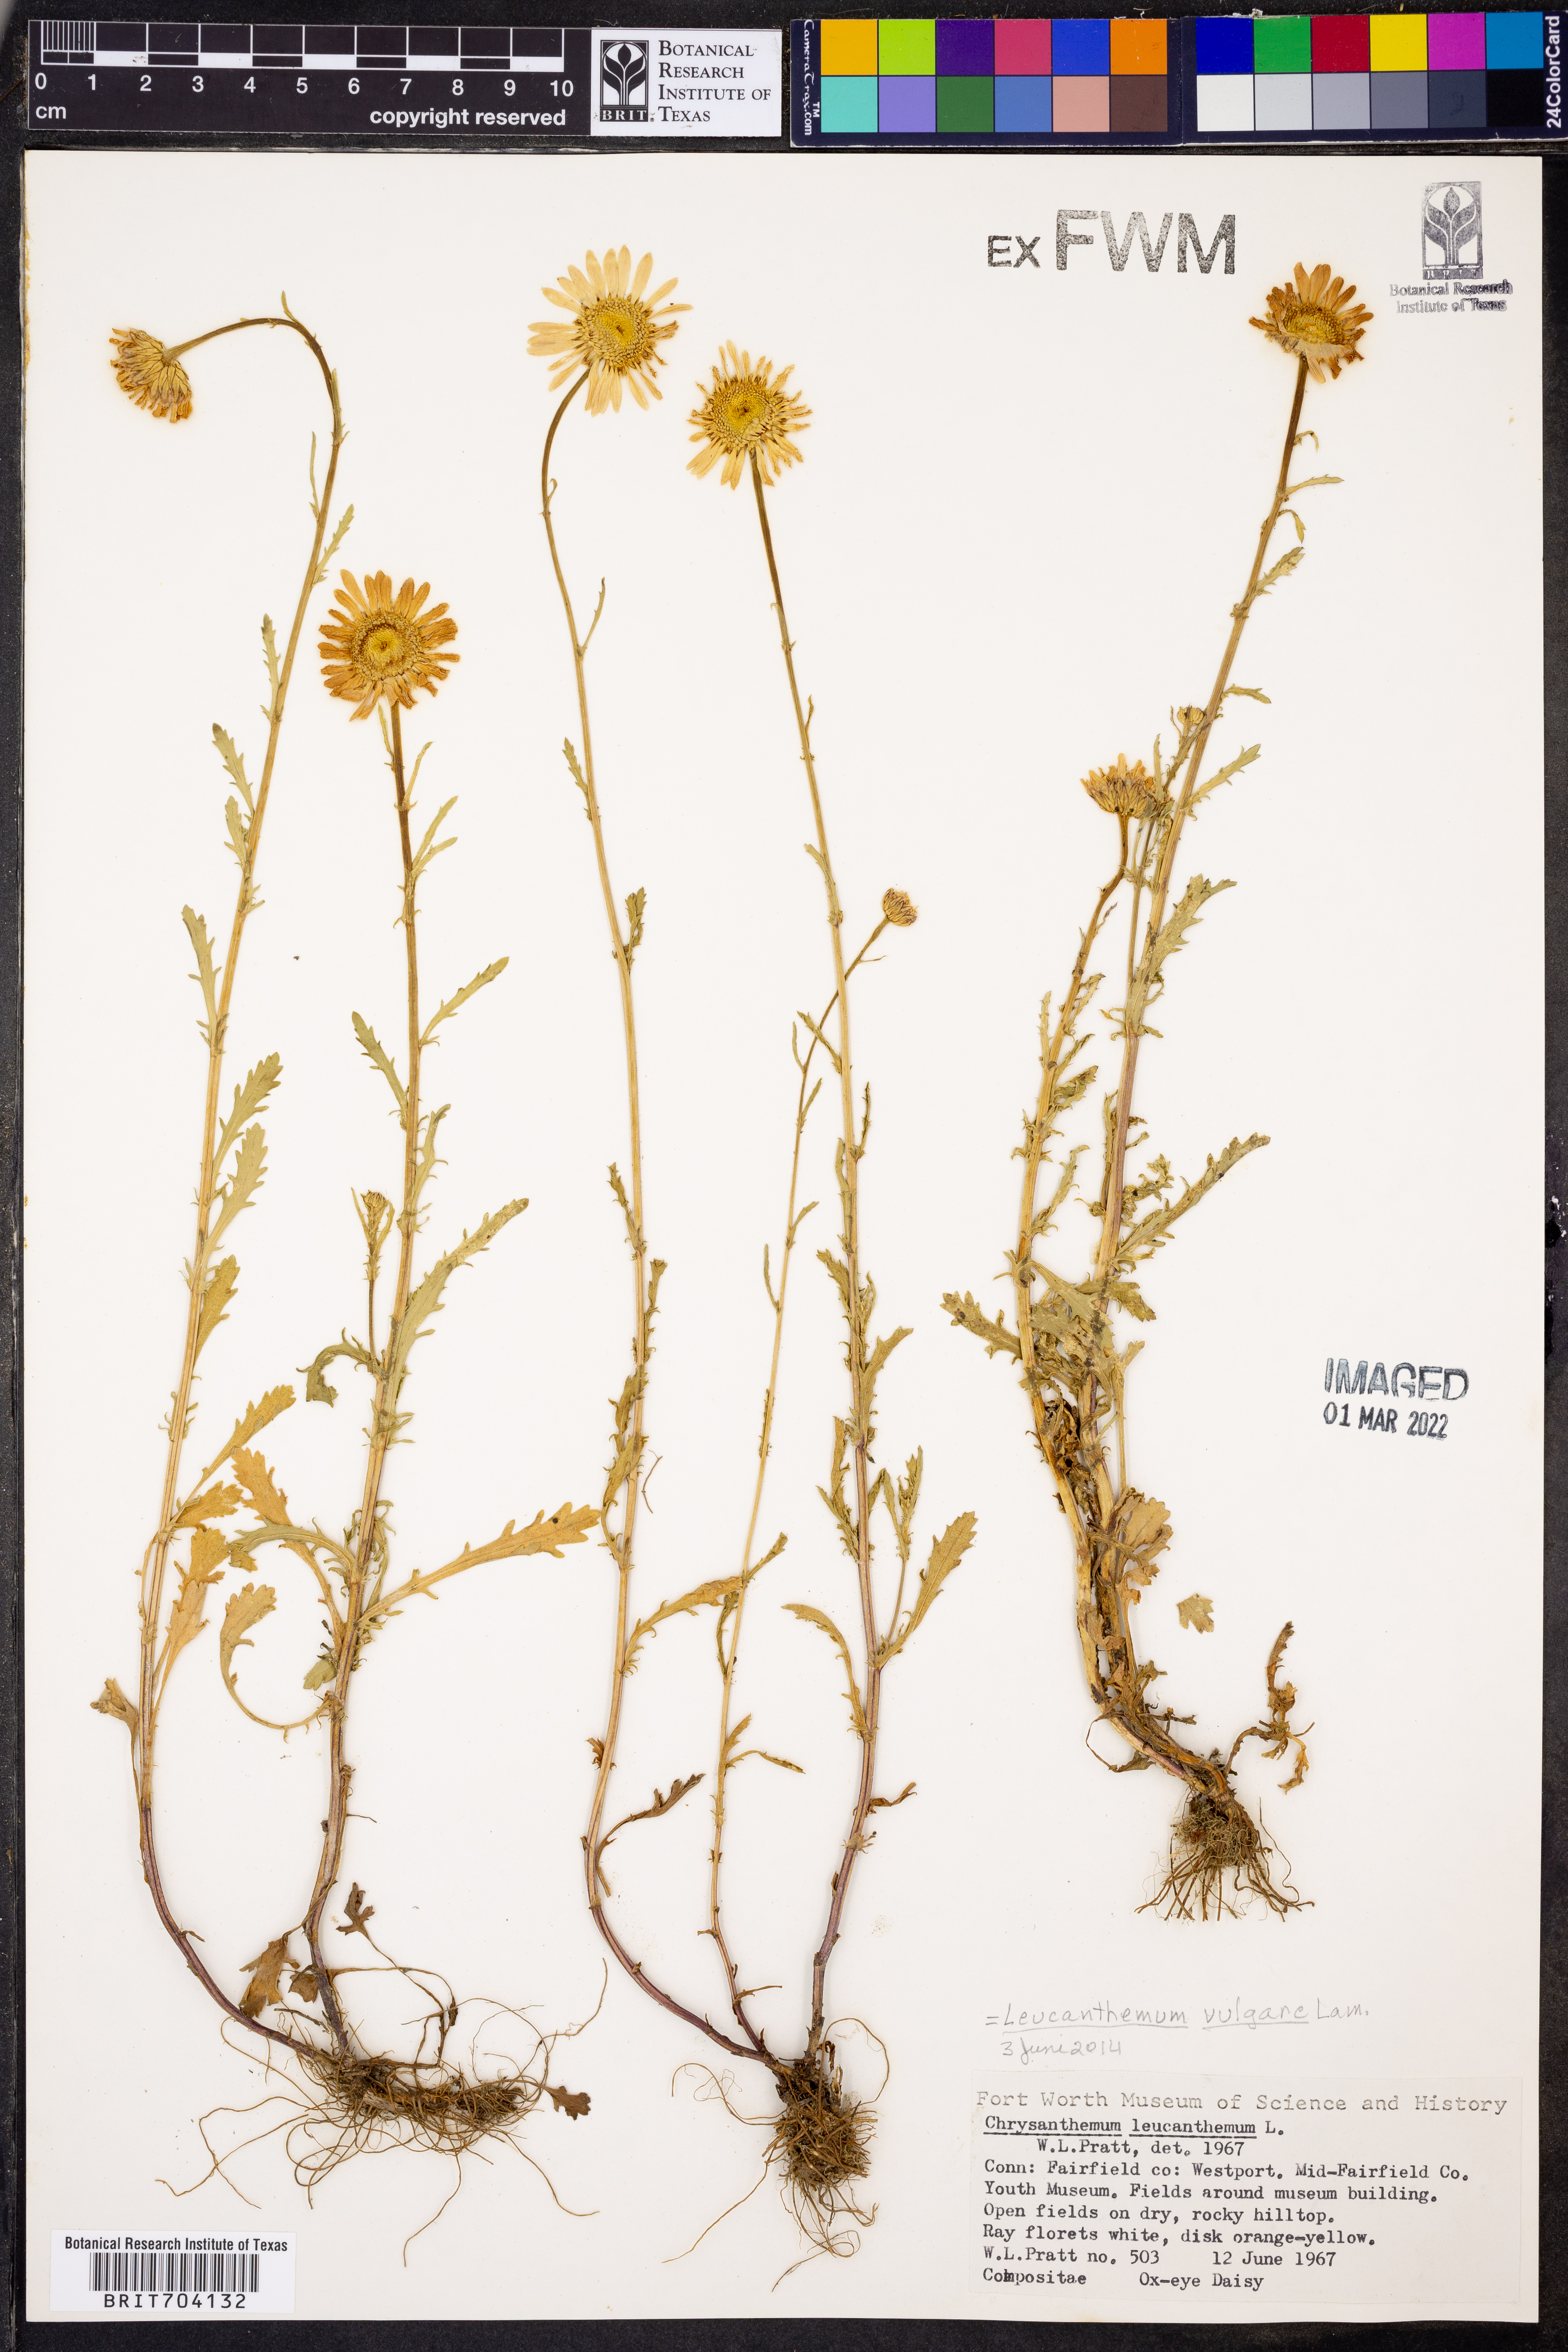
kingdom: Plantae
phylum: Tracheophyta
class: Magnoliopsida
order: Asterales
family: Asteraceae
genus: Leucanthemum
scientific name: Leucanthemum vulgare
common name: Oxeye daisy
